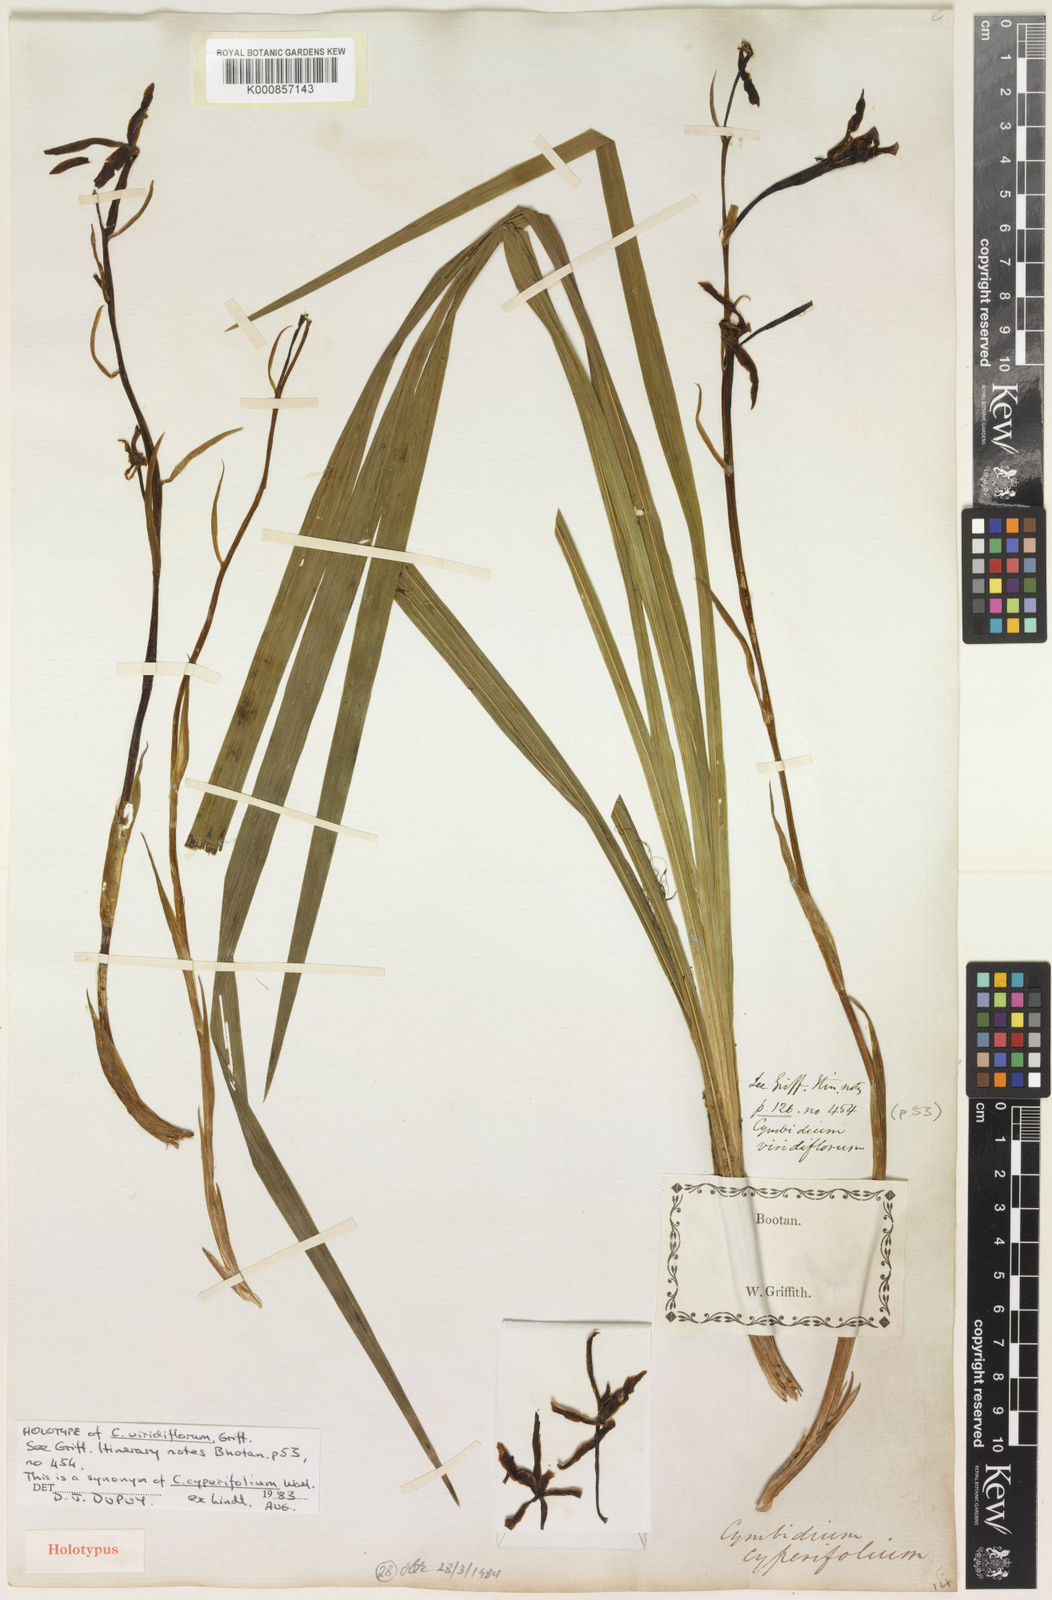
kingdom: Plantae
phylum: Tracheophyta
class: Liliopsida
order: Asparagales
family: Orchidaceae
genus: Cymbidium
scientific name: Cymbidium cyperifolium
